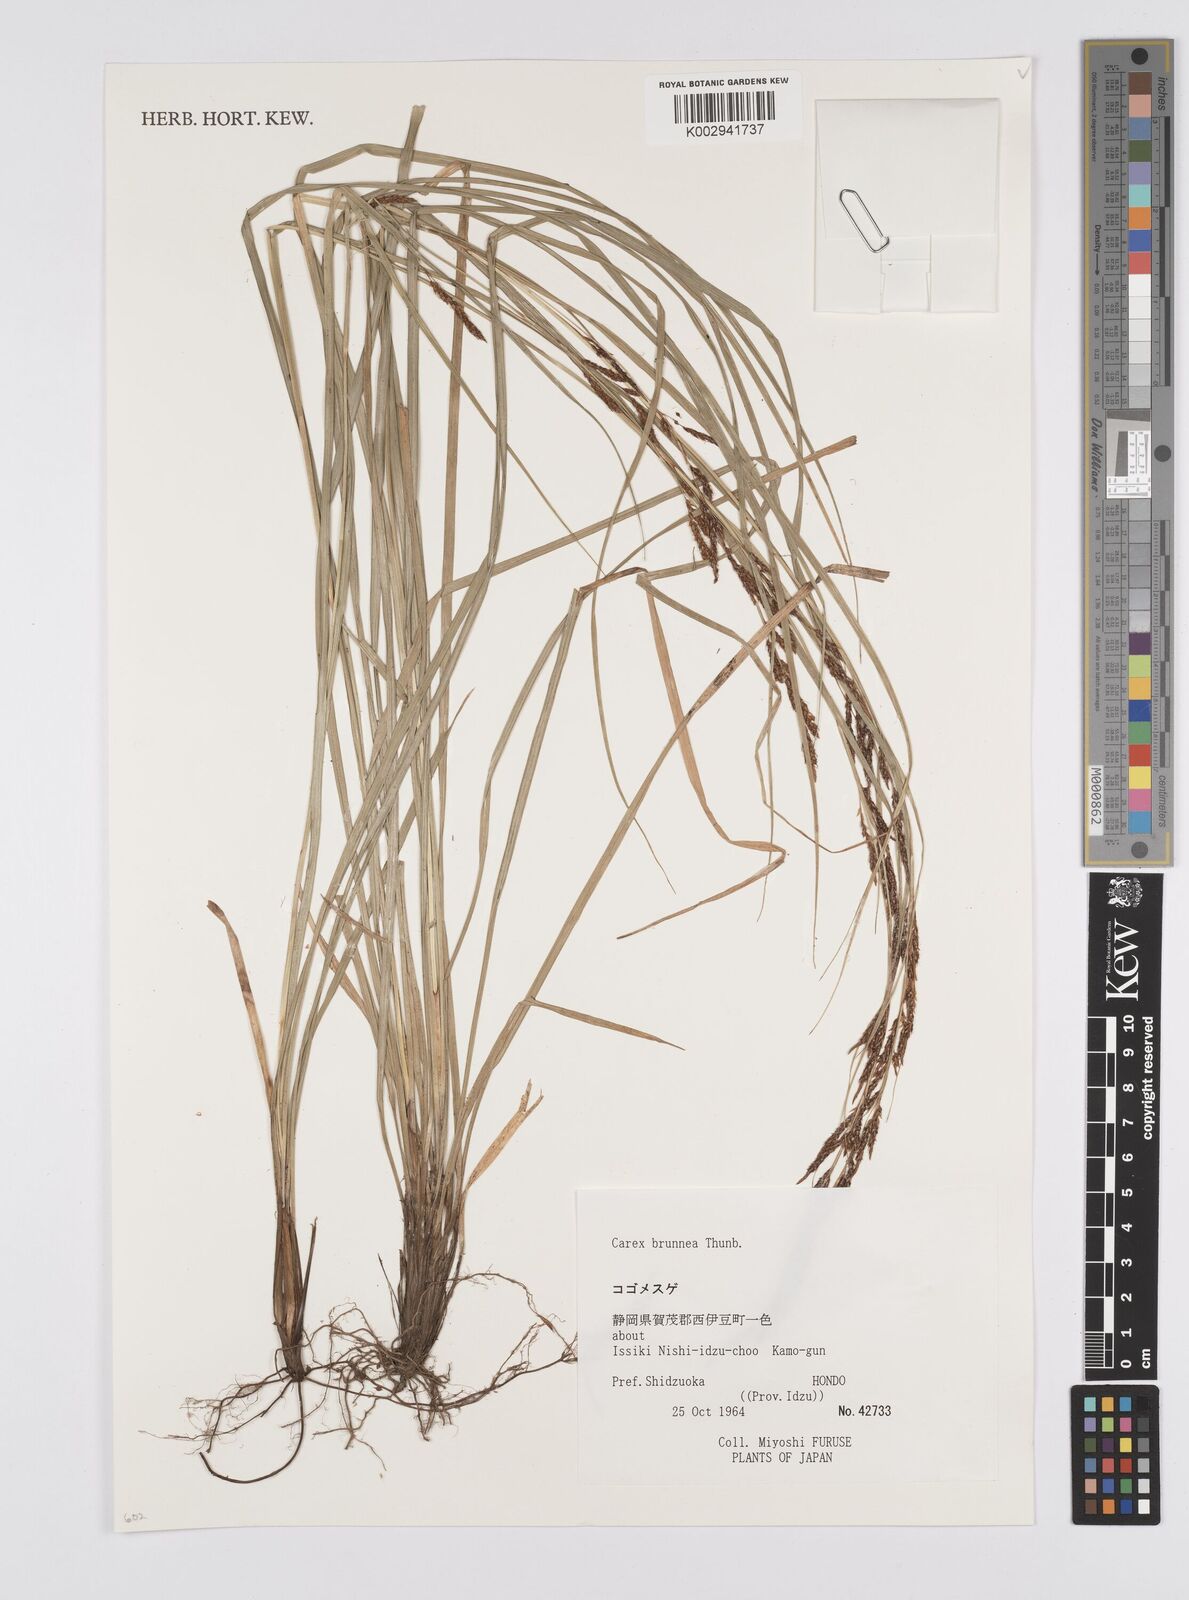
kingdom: Plantae
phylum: Tracheophyta
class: Liliopsida
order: Poales
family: Cyperaceae
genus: Carex
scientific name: Carex brunnea
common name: Greater brown sedge
